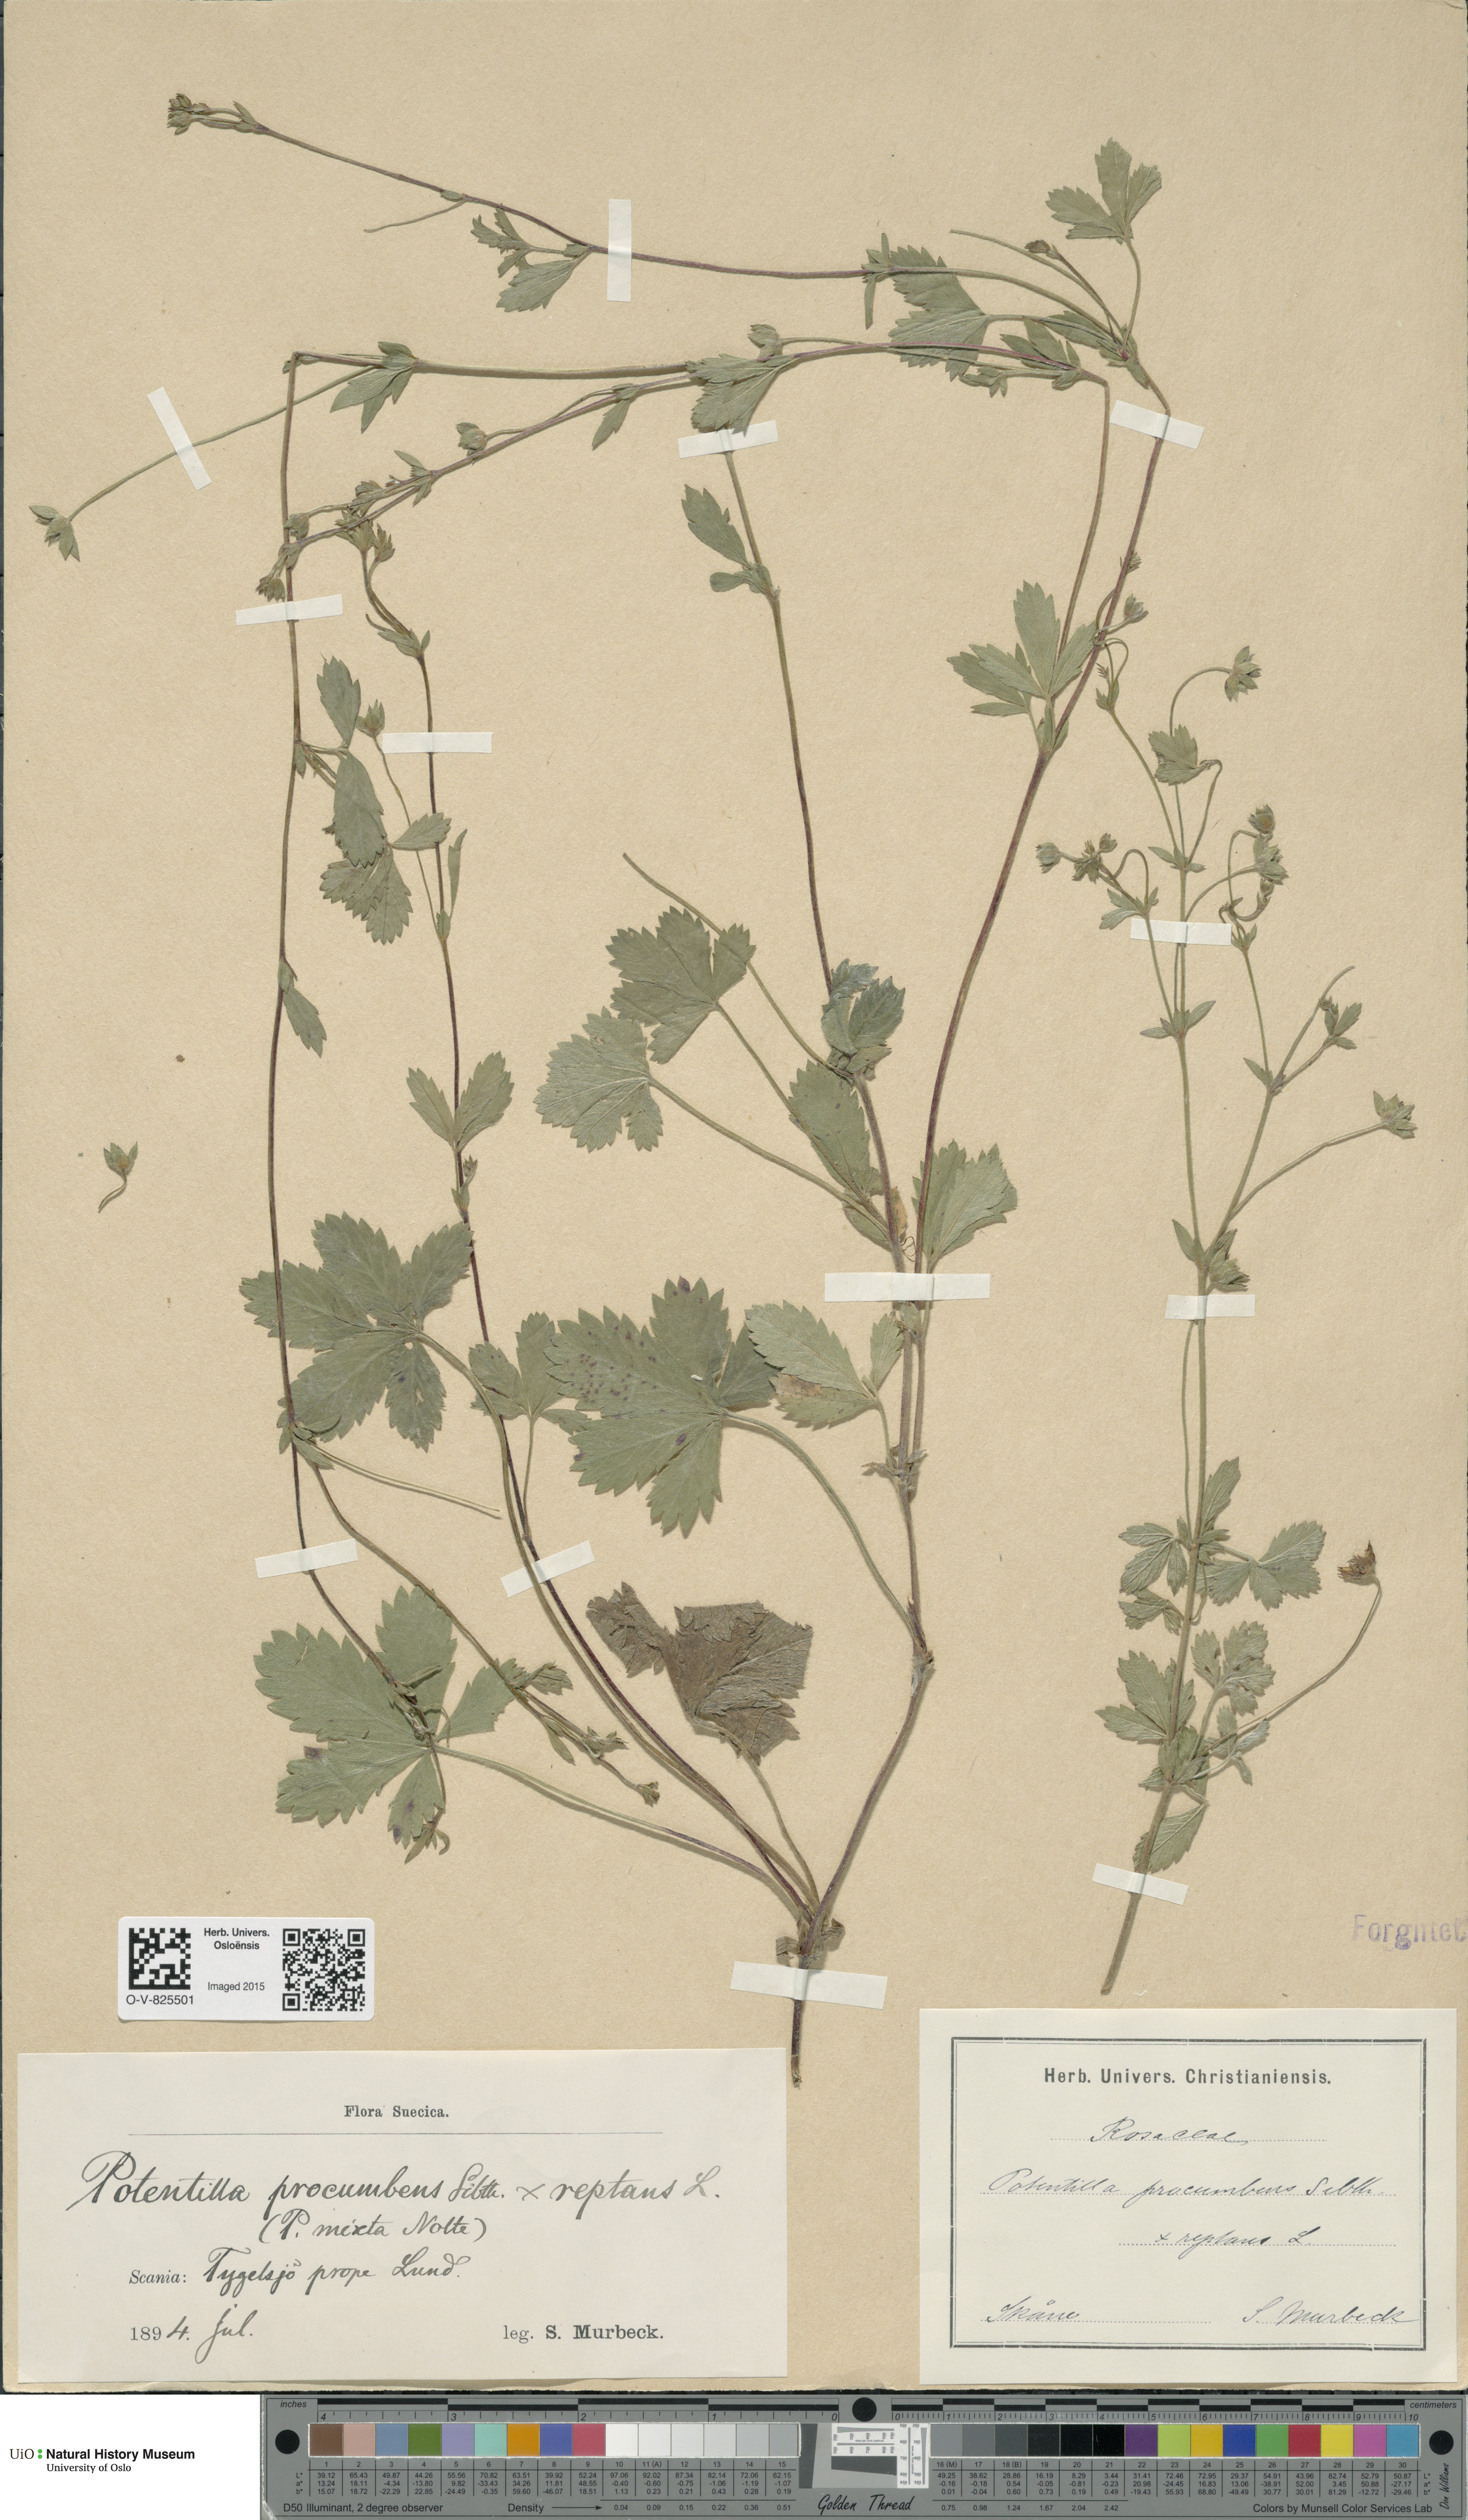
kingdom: Plantae
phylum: Tracheophyta
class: Magnoliopsida
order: Rosales
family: Rosaceae
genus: Potentilla
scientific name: Potentilla
